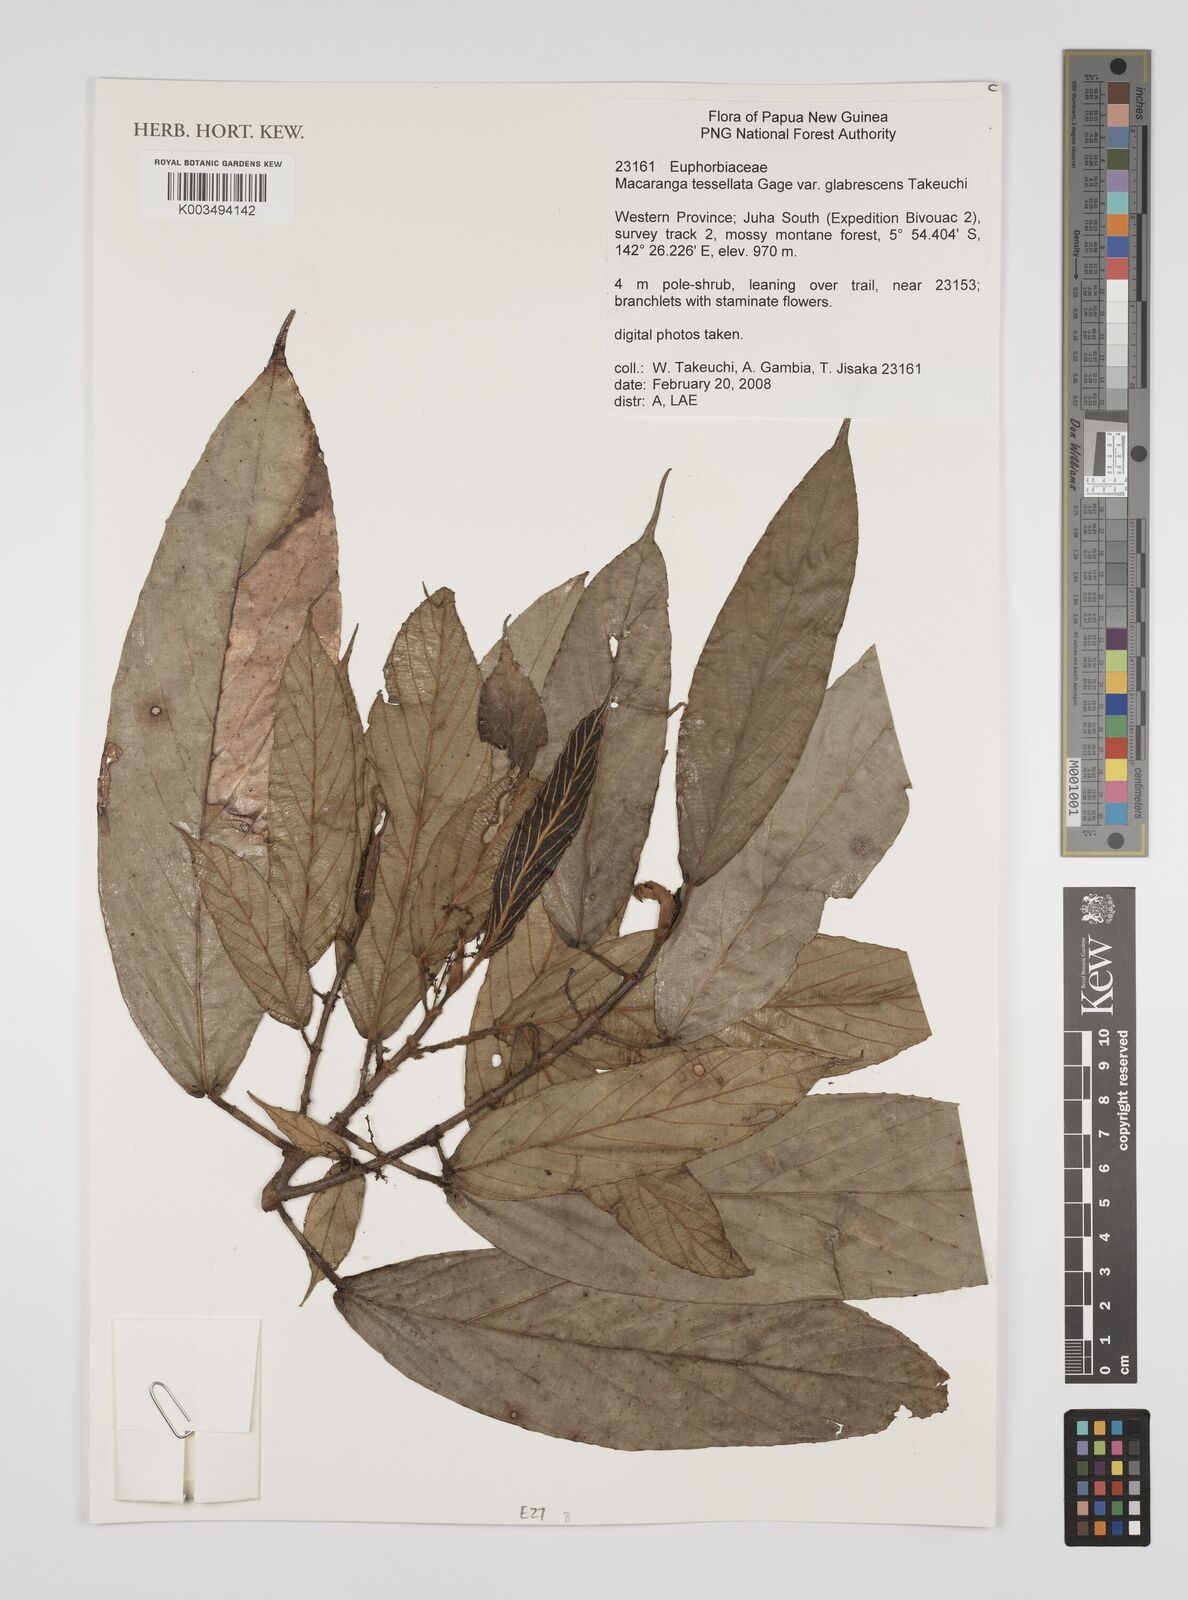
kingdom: Plantae
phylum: Tracheophyta
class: Magnoliopsida
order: Malpighiales
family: Euphorbiaceae
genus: Macaranga
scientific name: Macaranga aleuritoides
